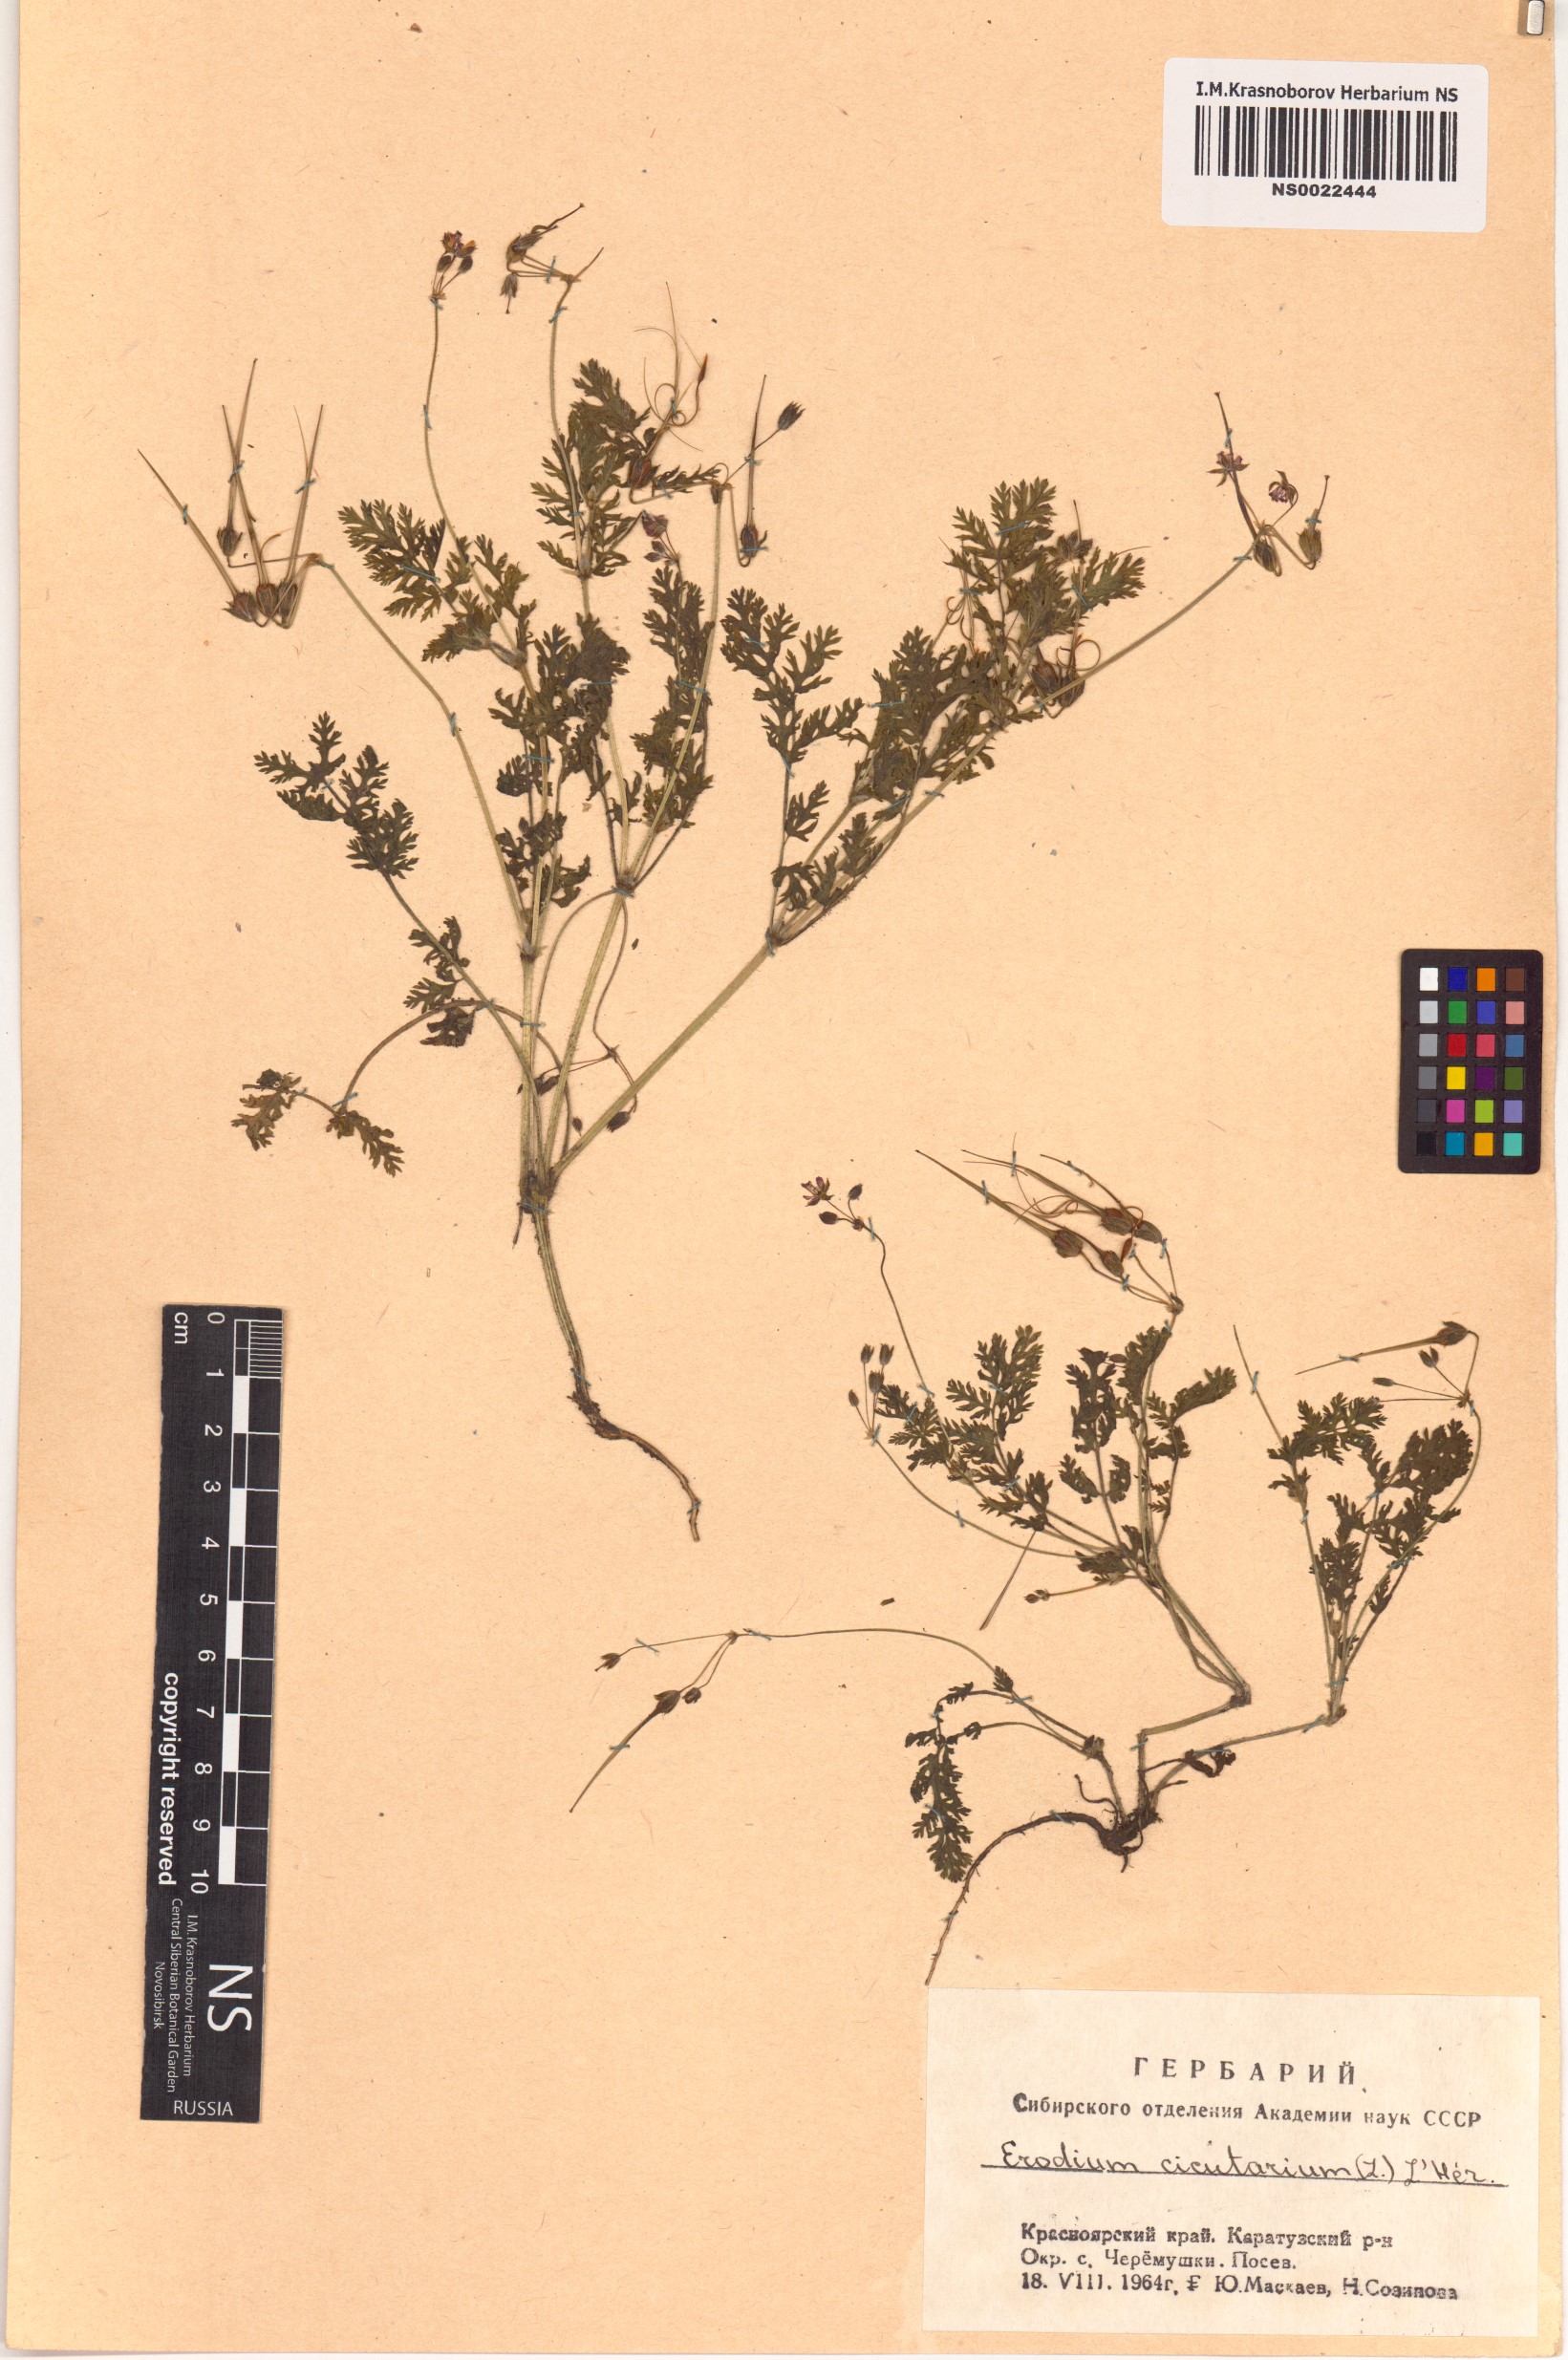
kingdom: Plantae
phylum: Tracheophyta
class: Magnoliopsida
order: Geraniales
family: Geraniaceae
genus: Erodium
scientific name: Erodium cicutarium
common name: Common stork's-bill
